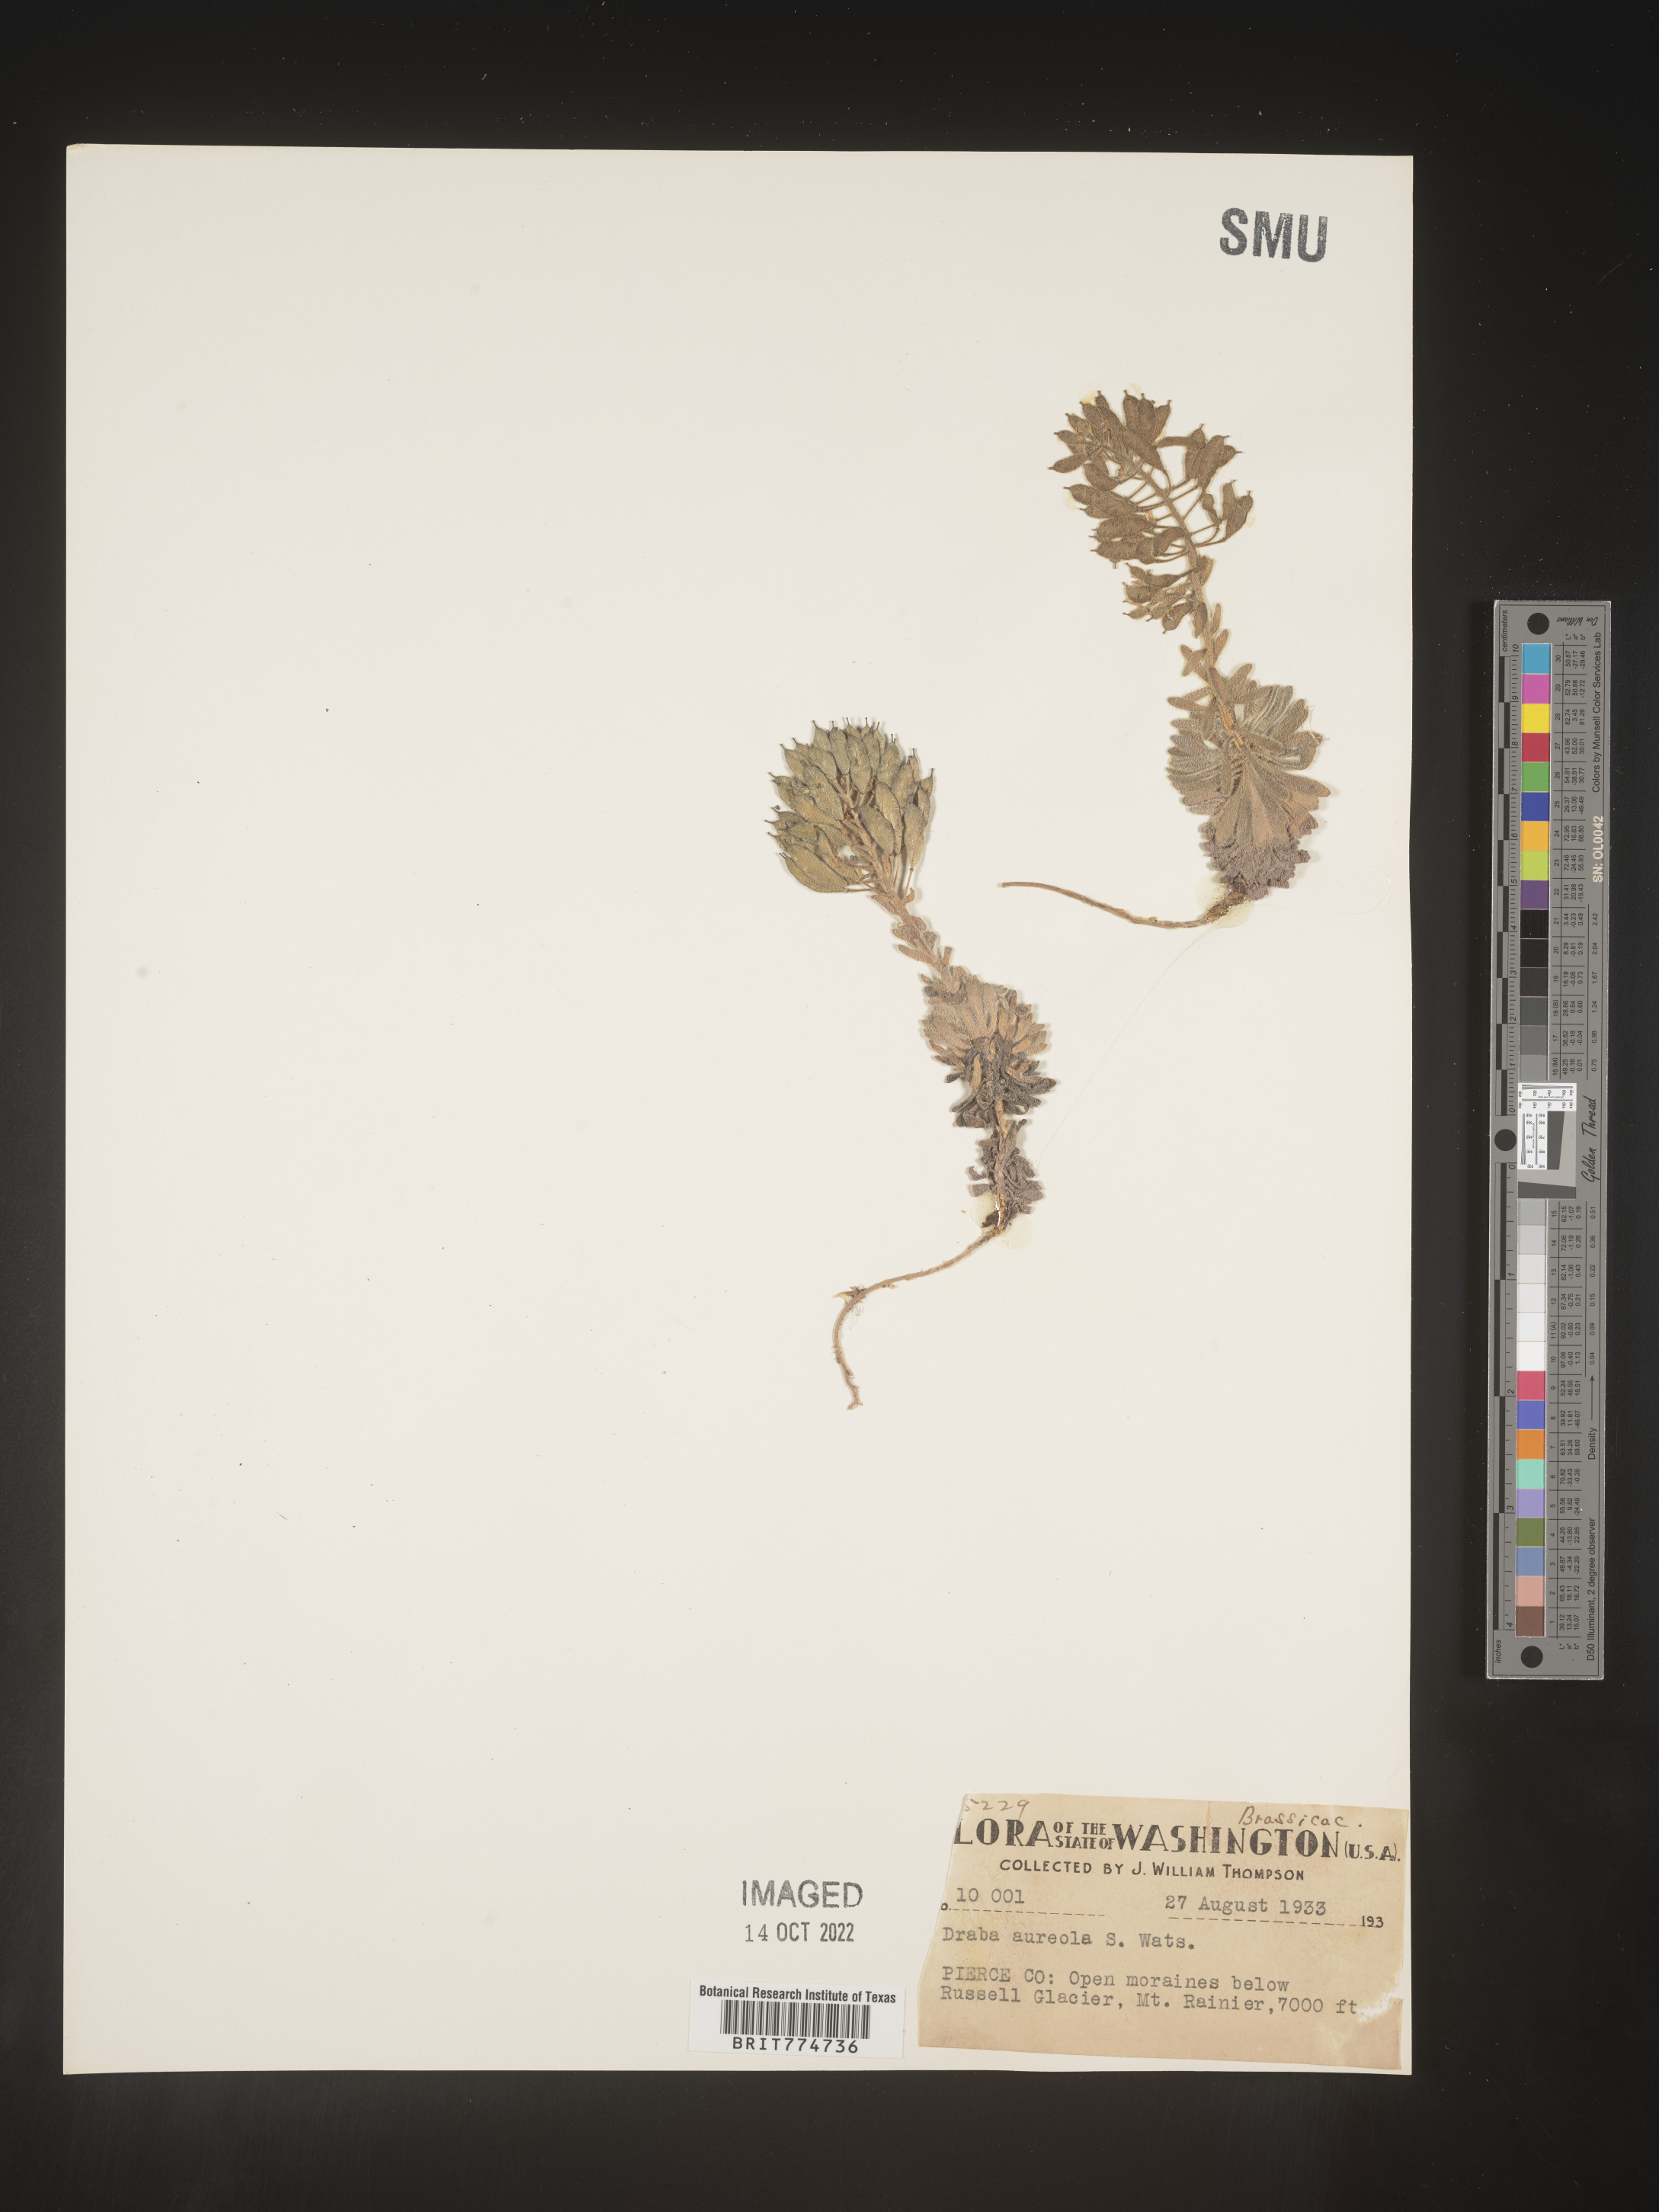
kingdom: Plantae
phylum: Tracheophyta
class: Magnoliopsida
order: Brassicales
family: Brassicaceae
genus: Draba
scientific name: Draba
